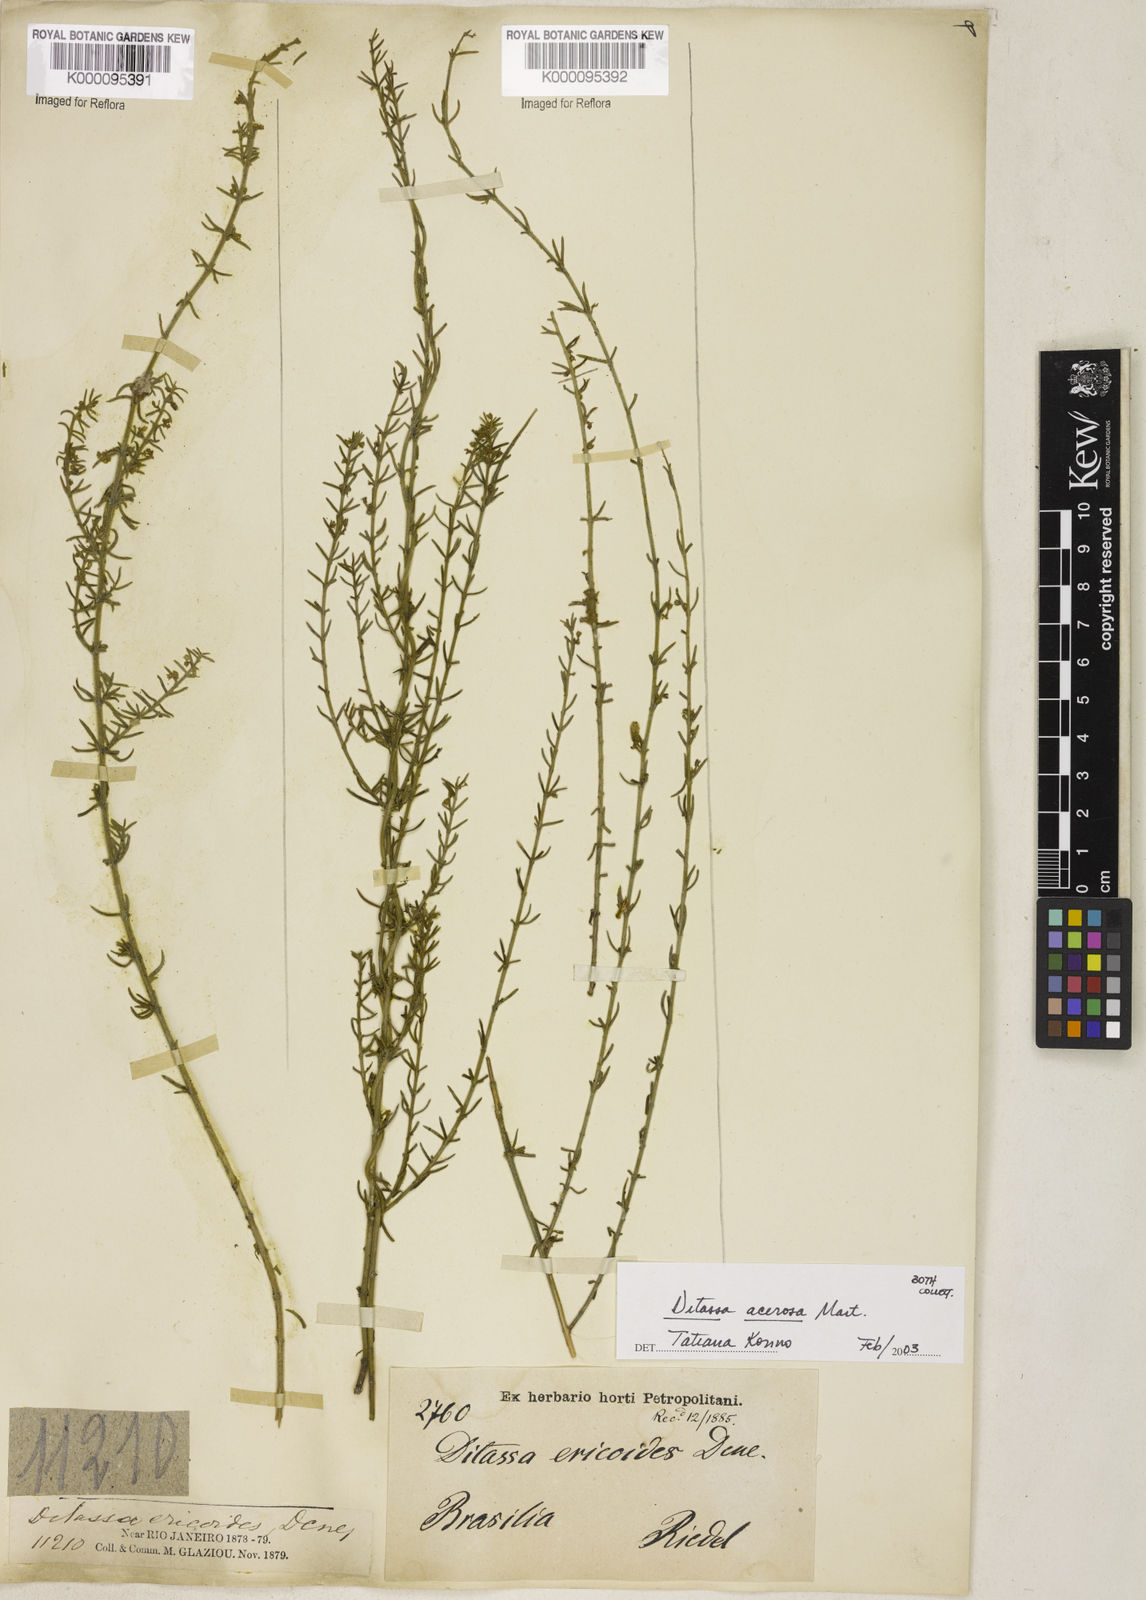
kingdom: Plantae
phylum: Tracheophyta
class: Magnoliopsida
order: Gentianales
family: Apocynaceae
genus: Minaria
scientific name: Minaria acerosa
